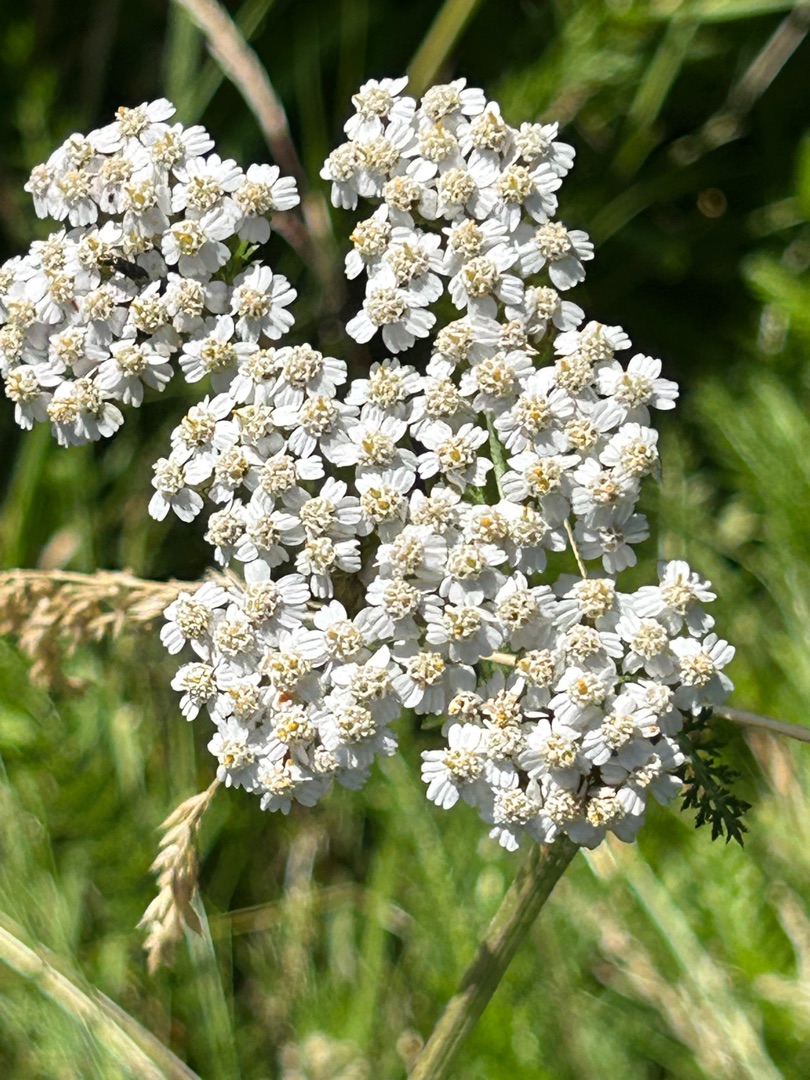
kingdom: Plantae
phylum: Tracheophyta
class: Magnoliopsida
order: Asterales
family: Asteraceae
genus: Achillea
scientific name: Achillea millefolium
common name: Almindelig røllike
